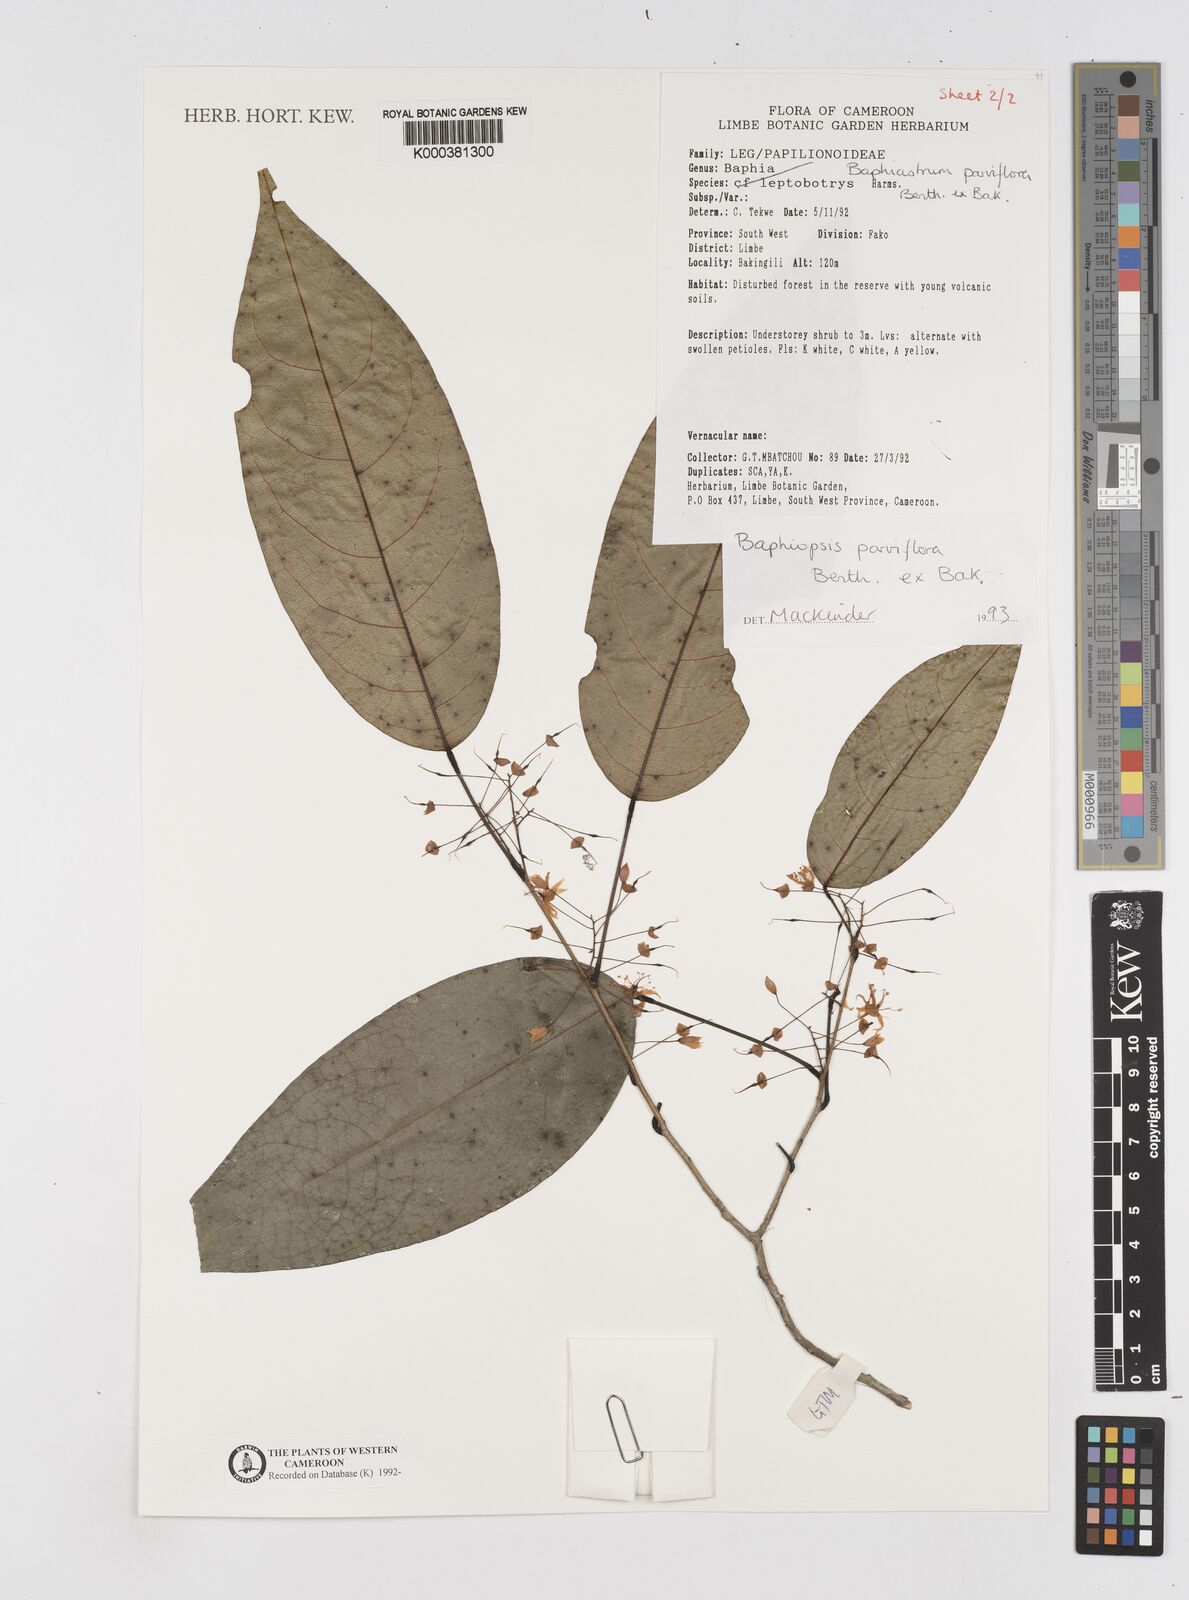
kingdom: Plantae
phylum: Tracheophyta
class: Magnoliopsida
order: Fabales
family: Fabaceae
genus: Baphiopsis
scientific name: Baphiopsis parviflora
